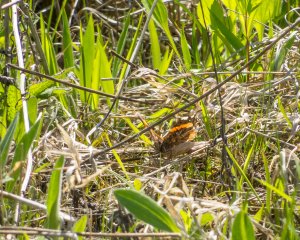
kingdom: Animalia
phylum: Arthropoda
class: Insecta
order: Lepidoptera
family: Nymphalidae
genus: Vanessa
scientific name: Vanessa atalanta
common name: Red Admiral
